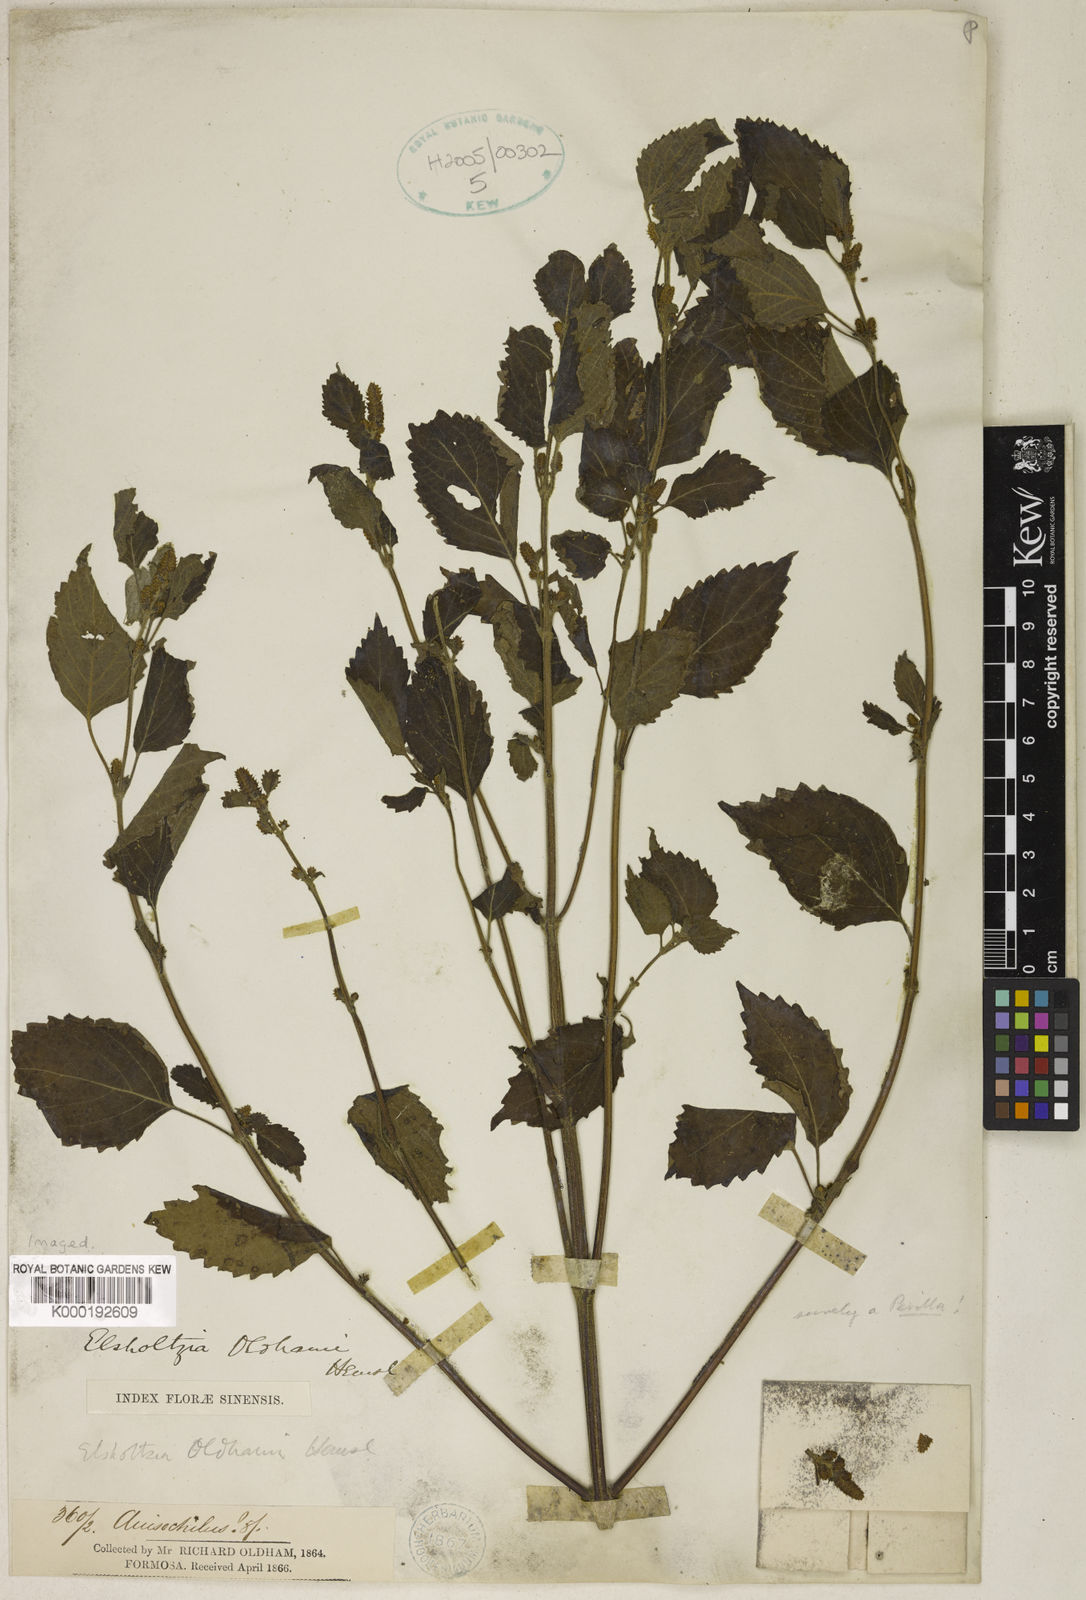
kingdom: Plantae
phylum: Tracheophyta
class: Magnoliopsida
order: Lamiales
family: Lamiaceae
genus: Elsholtzia
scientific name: Elsholtzia oldhamii
